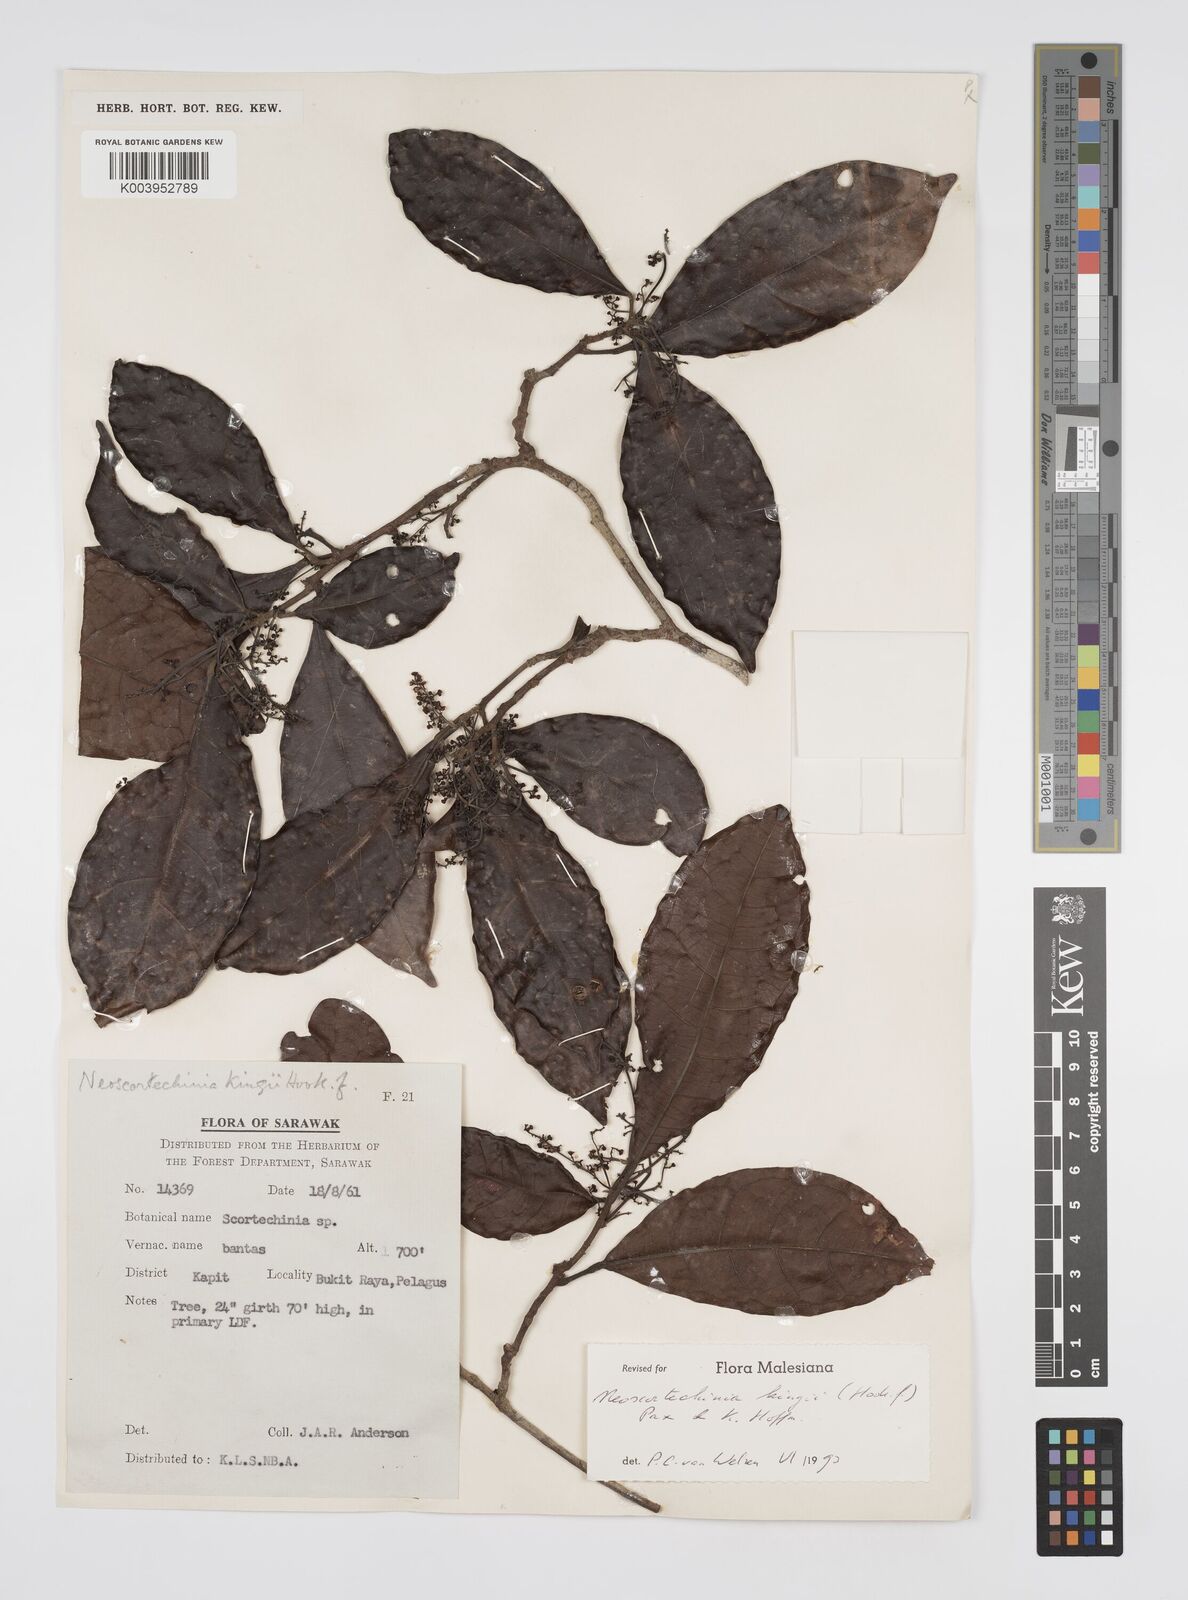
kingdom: Plantae
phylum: Tracheophyta
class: Magnoliopsida
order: Malpighiales
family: Euphorbiaceae
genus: Neoscortechinia
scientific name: Neoscortechinia kingii
